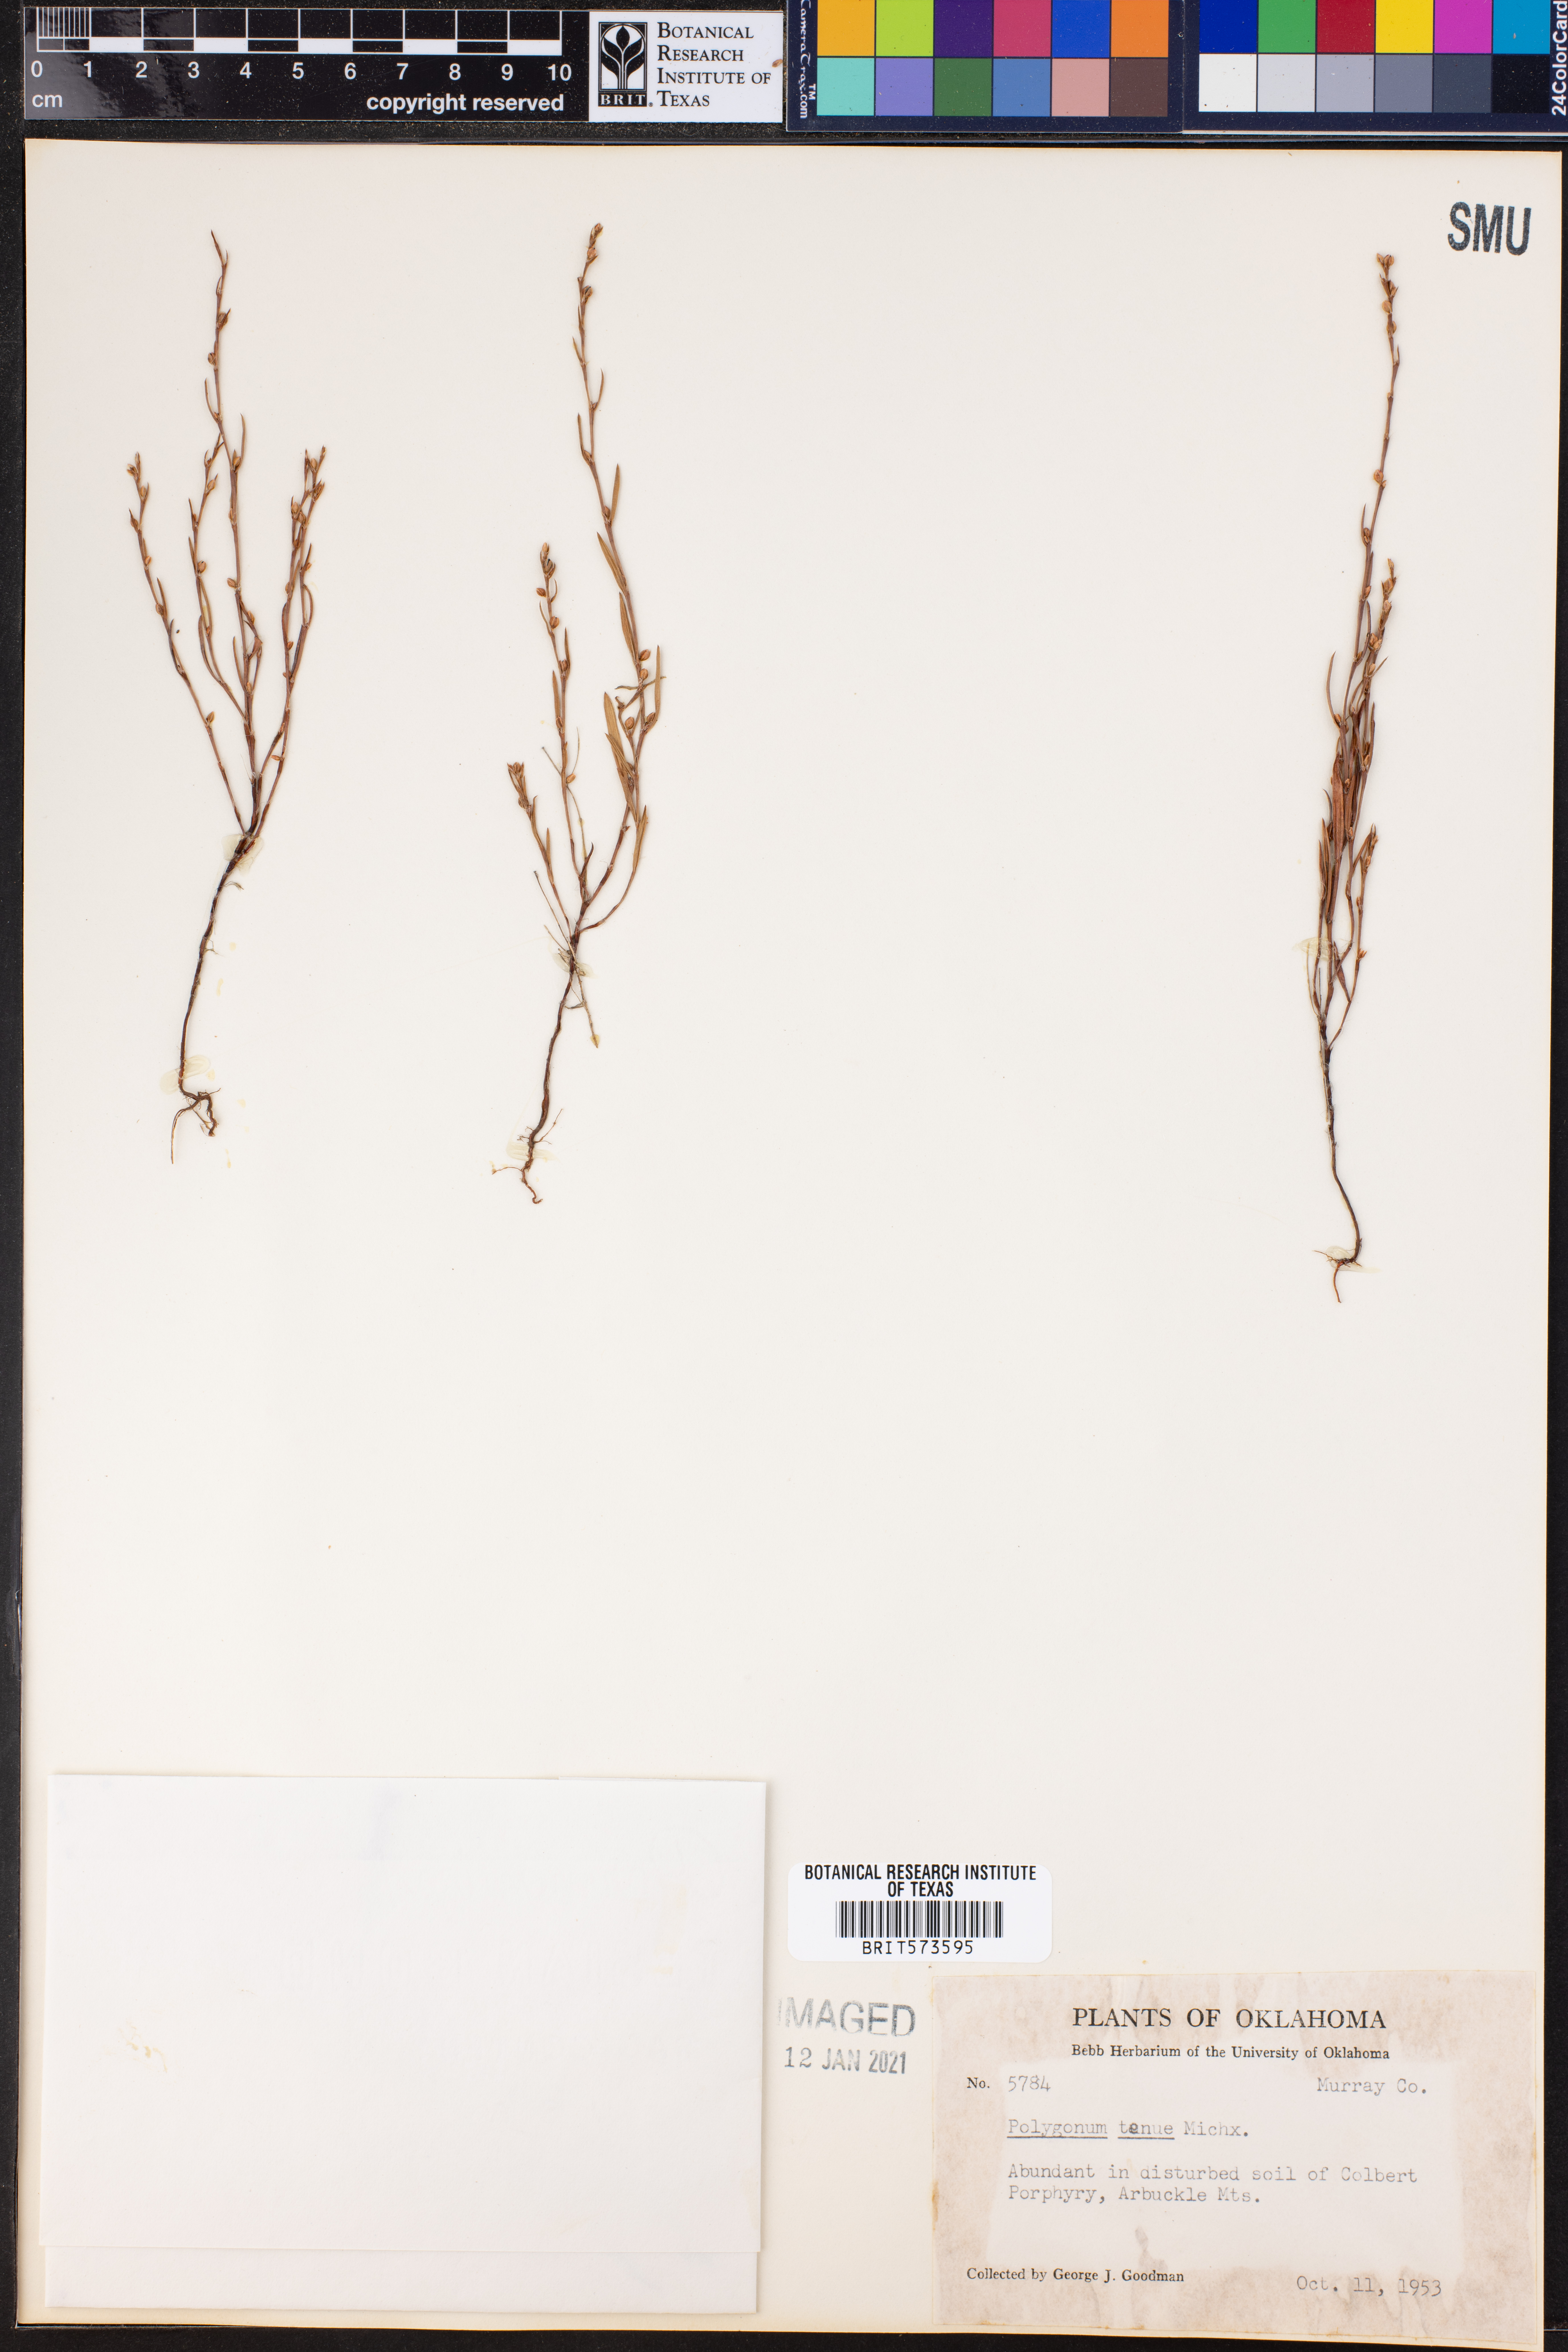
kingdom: Plantae
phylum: Tracheophyta
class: Magnoliopsida
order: Caryophyllales
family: Polygonaceae
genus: Polygonum
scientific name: Polygonum tenue
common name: Pleat-leaved knotweed
